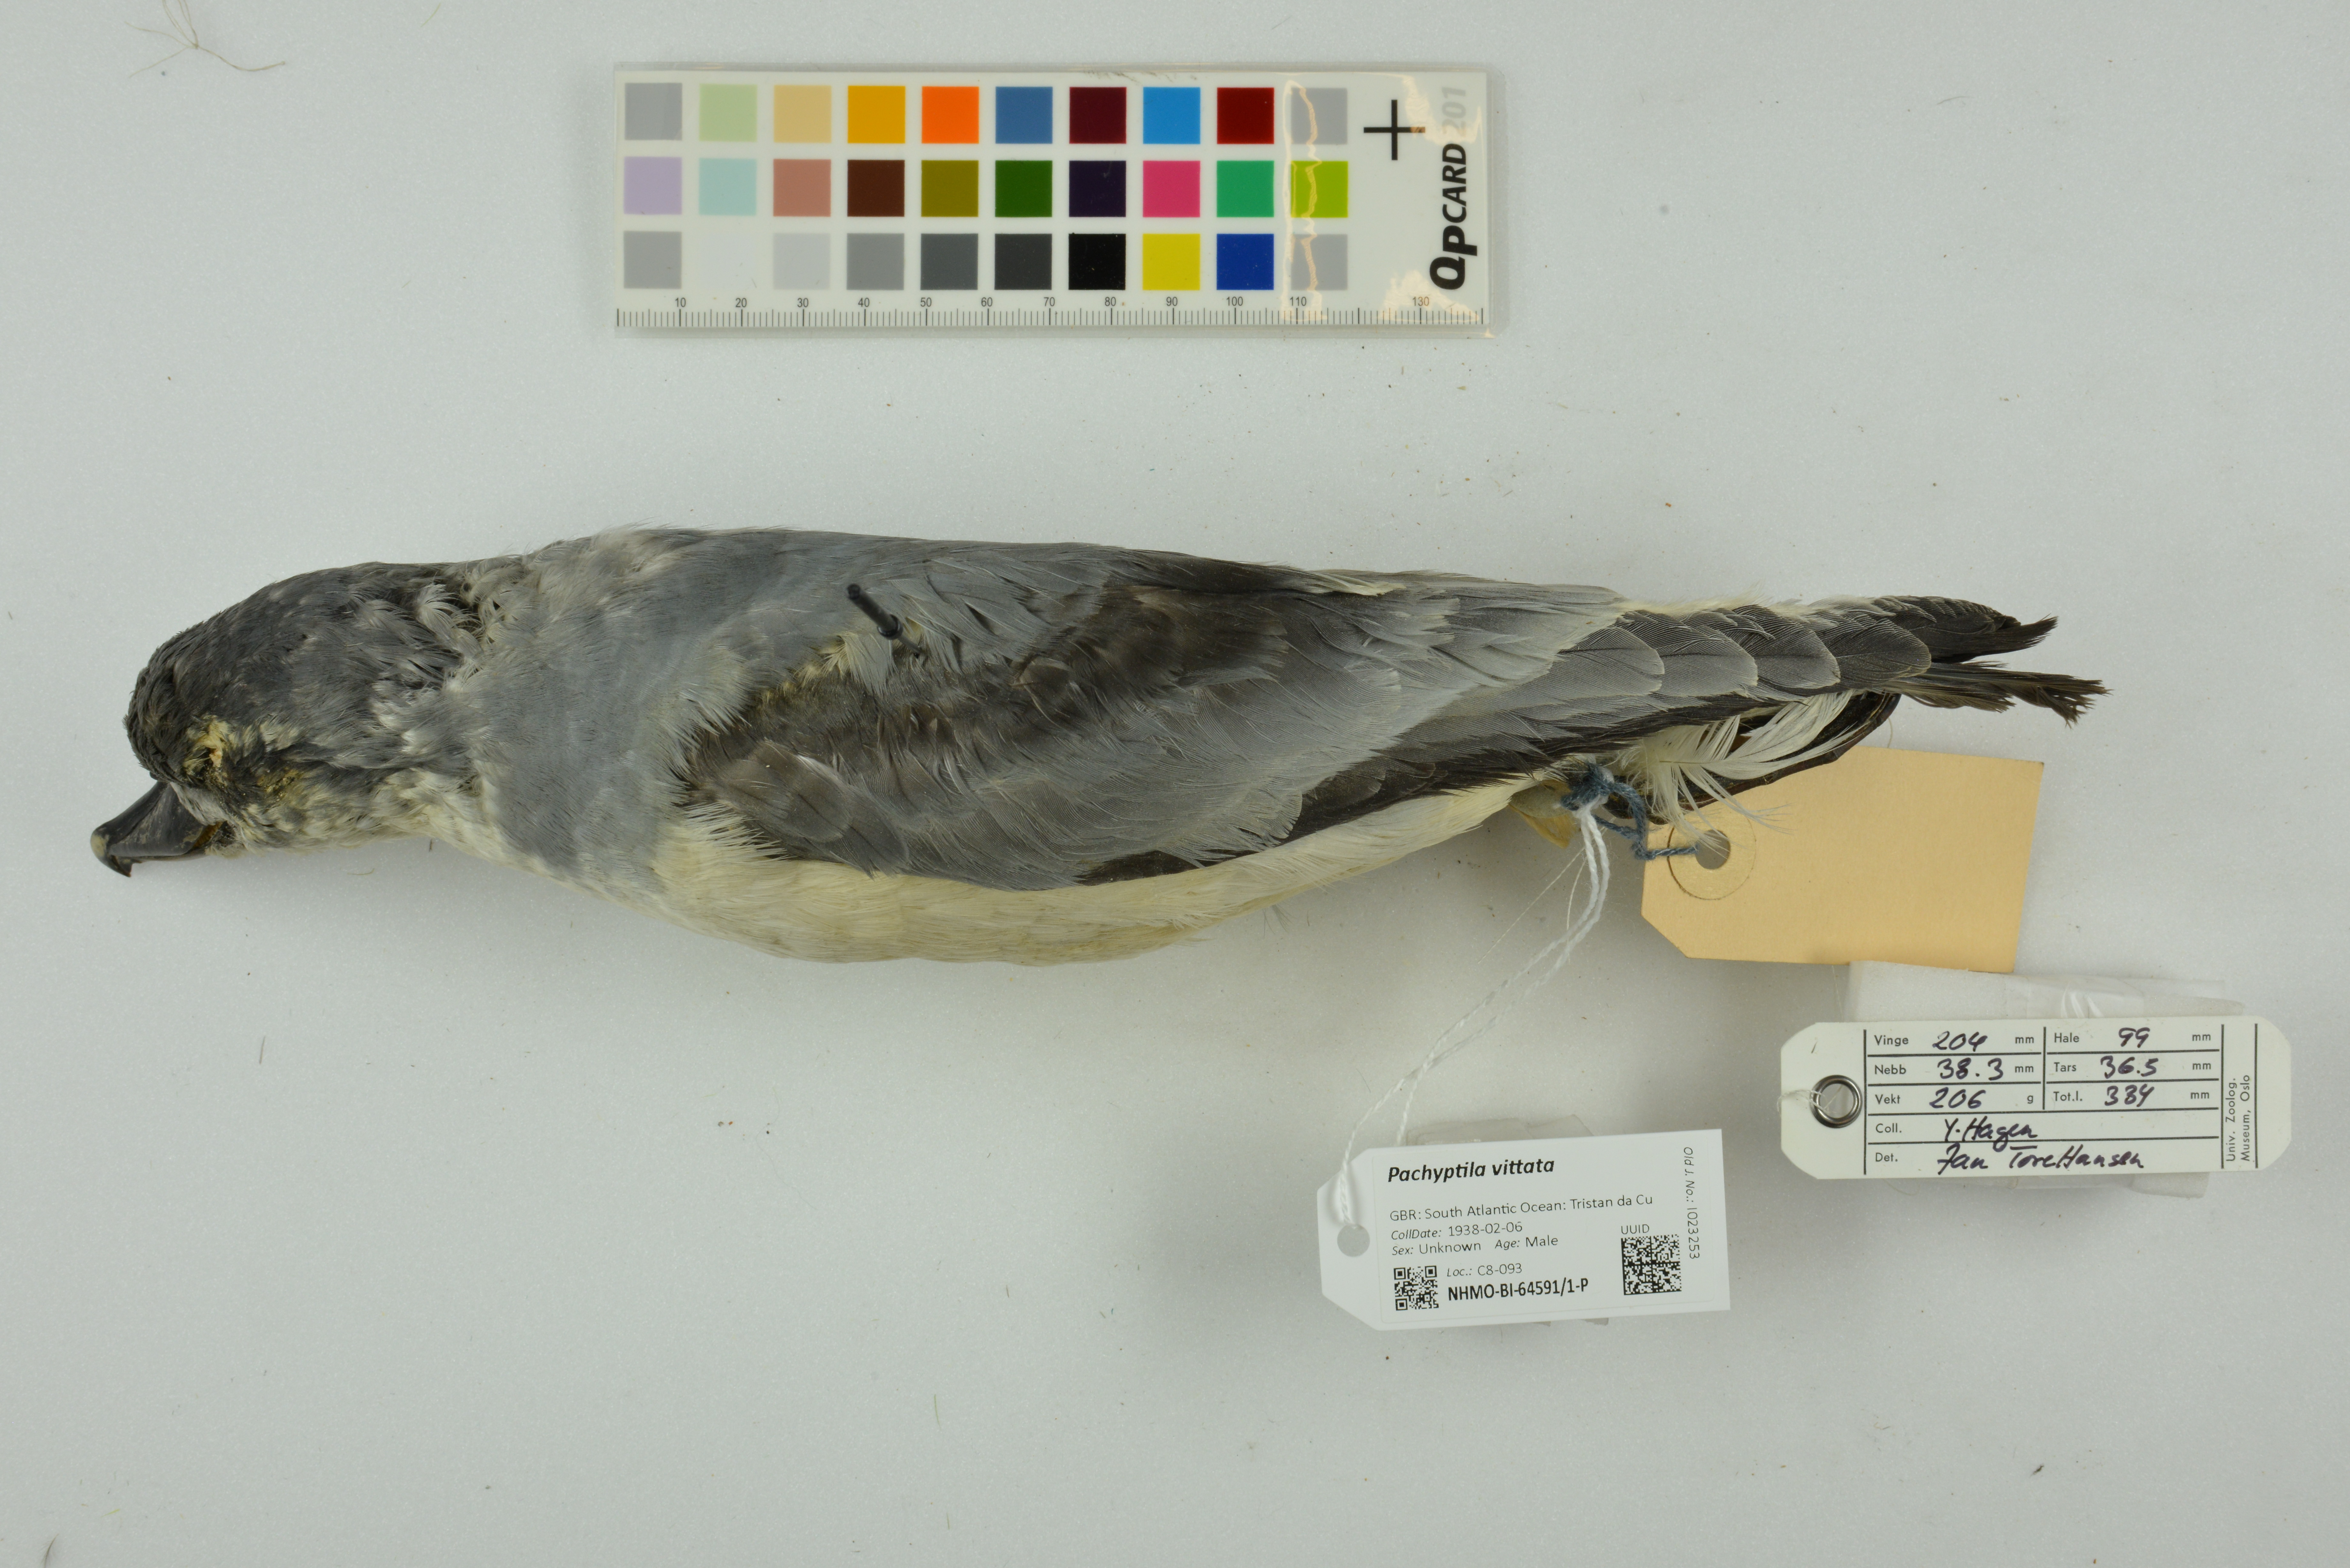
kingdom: Animalia
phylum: Chordata
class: Aves
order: Procellariiformes
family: Procellariidae
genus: Pachyptila
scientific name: Pachyptila vittata
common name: Broad-billed prion
